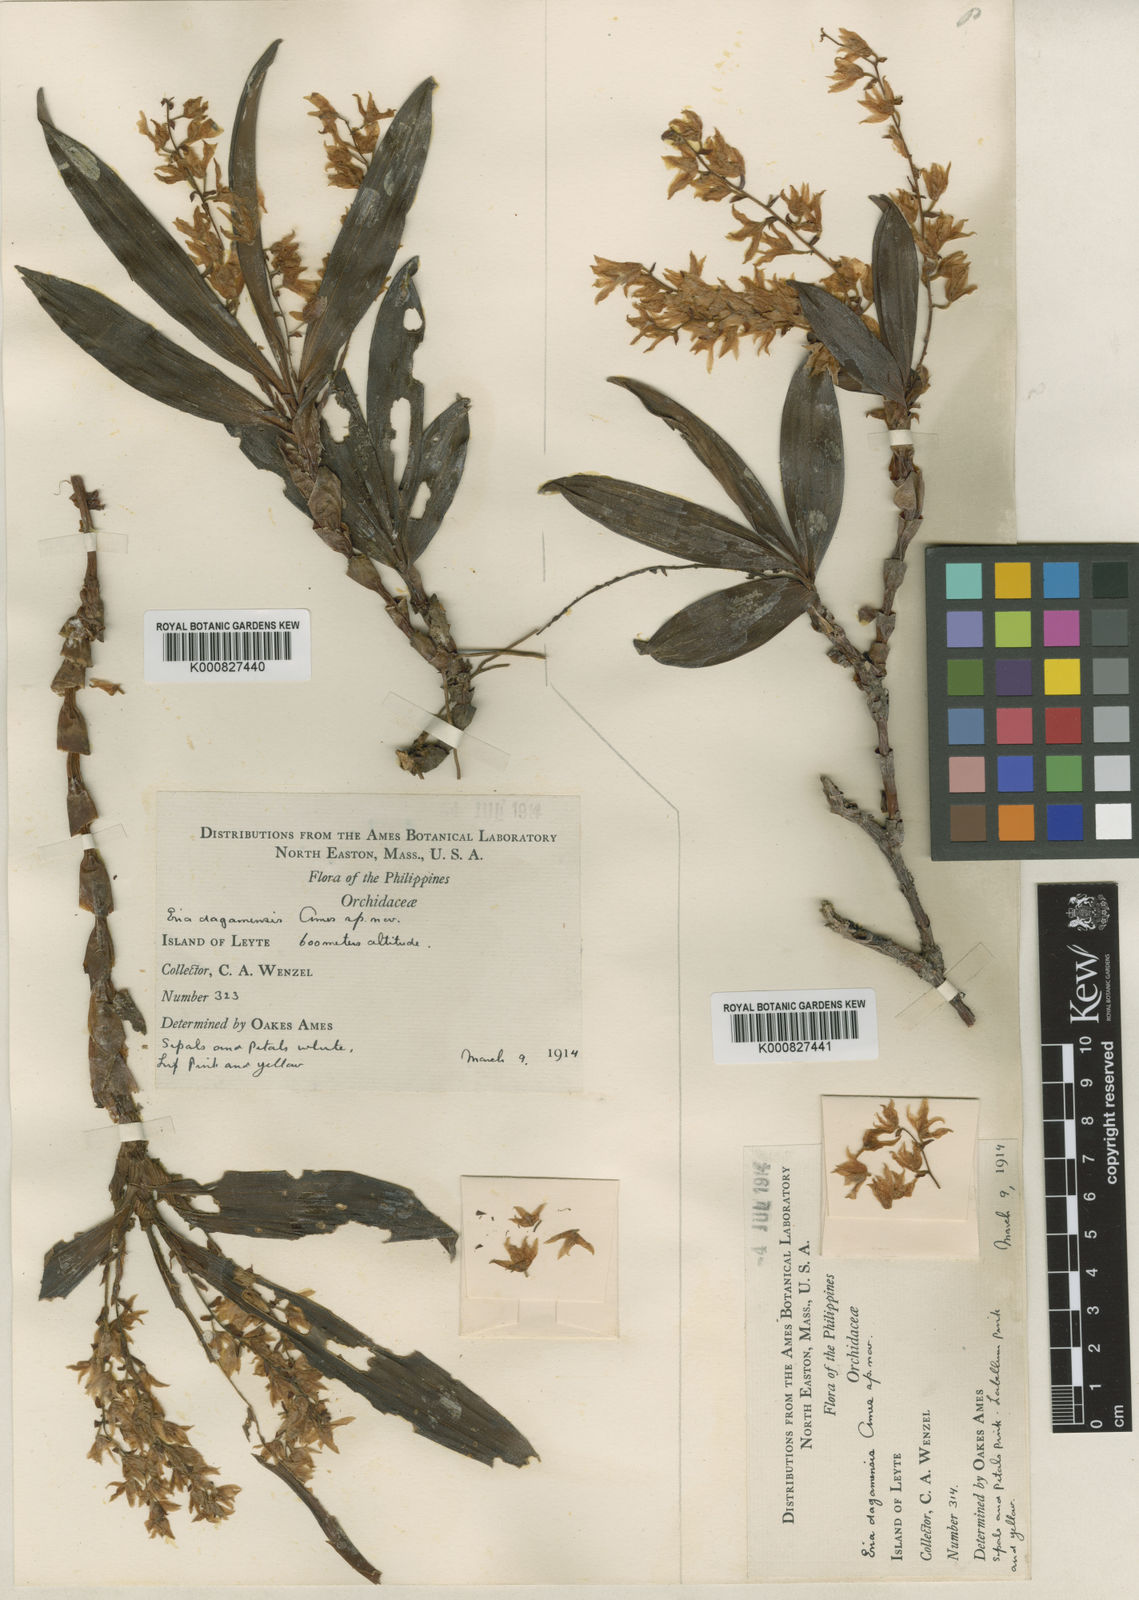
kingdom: Plantae
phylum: Tracheophyta
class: Liliopsida
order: Asparagales
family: Orchidaceae
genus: Pinalia
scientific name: Pinalia dagamensis
